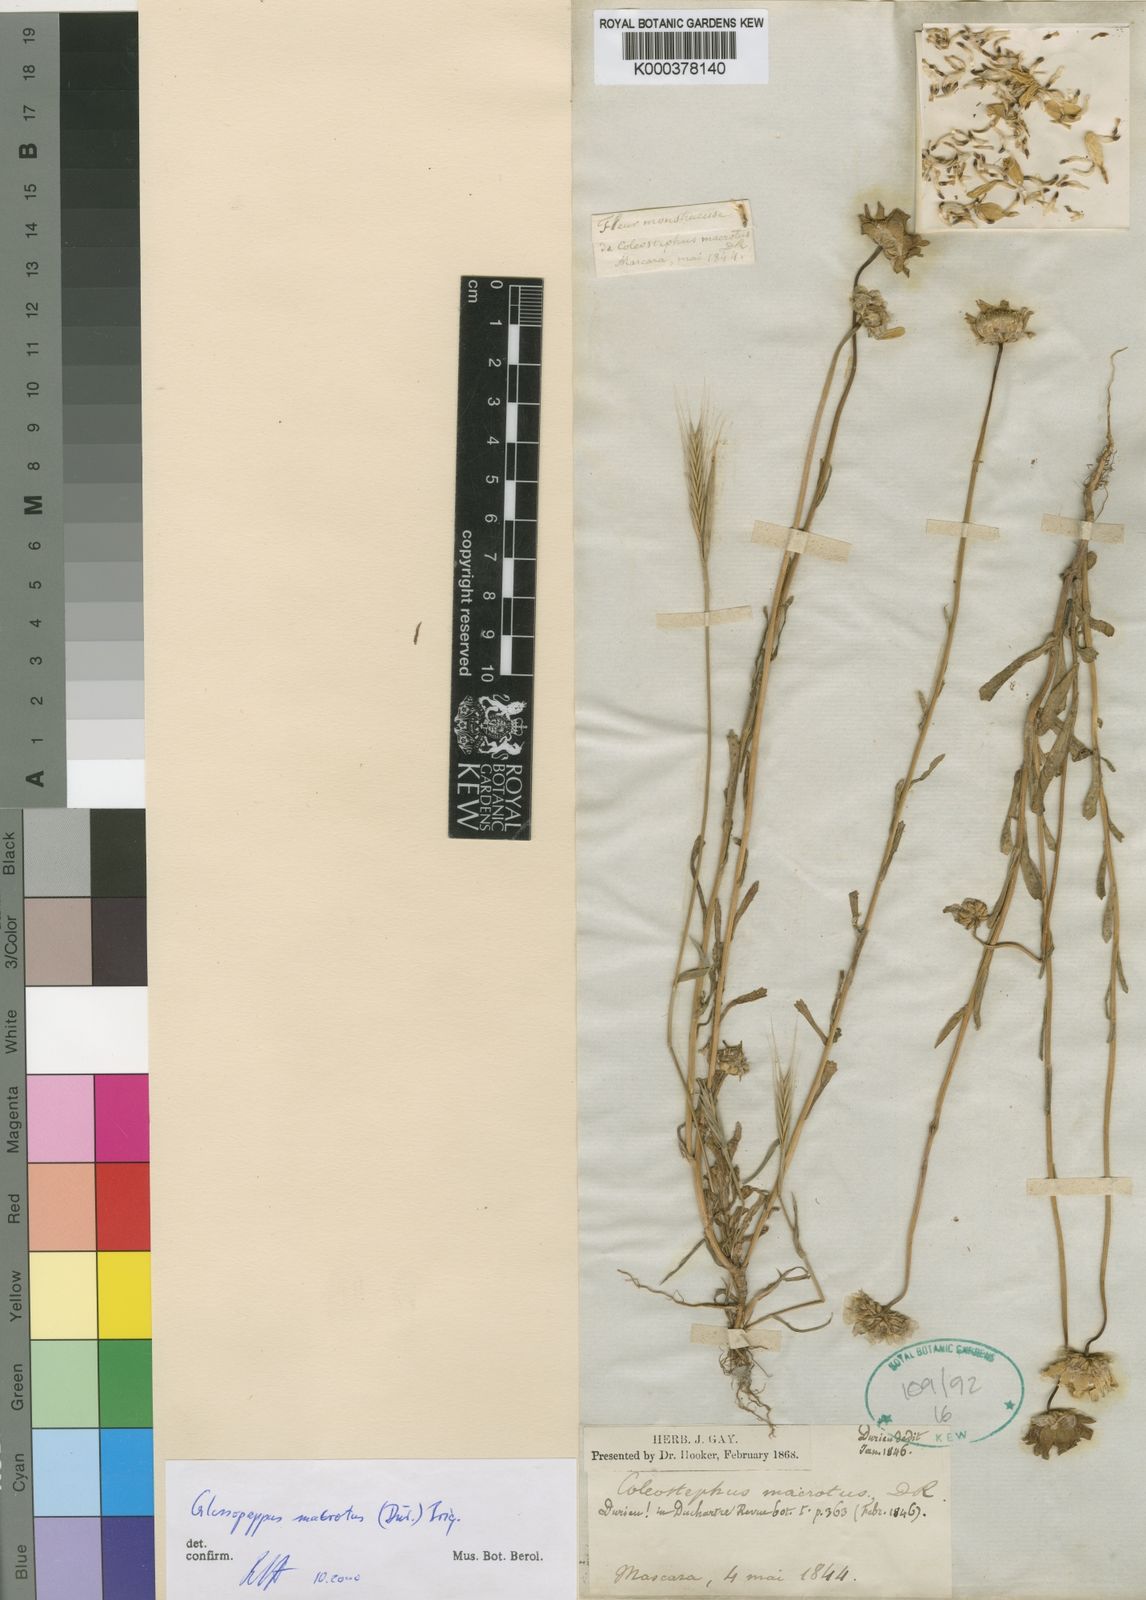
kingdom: Plantae
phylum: Tracheophyta
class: Magnoliopsida
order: Asterales
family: Asteraceae
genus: Chrysanthoglossum
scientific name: Chrysanthoglossum
